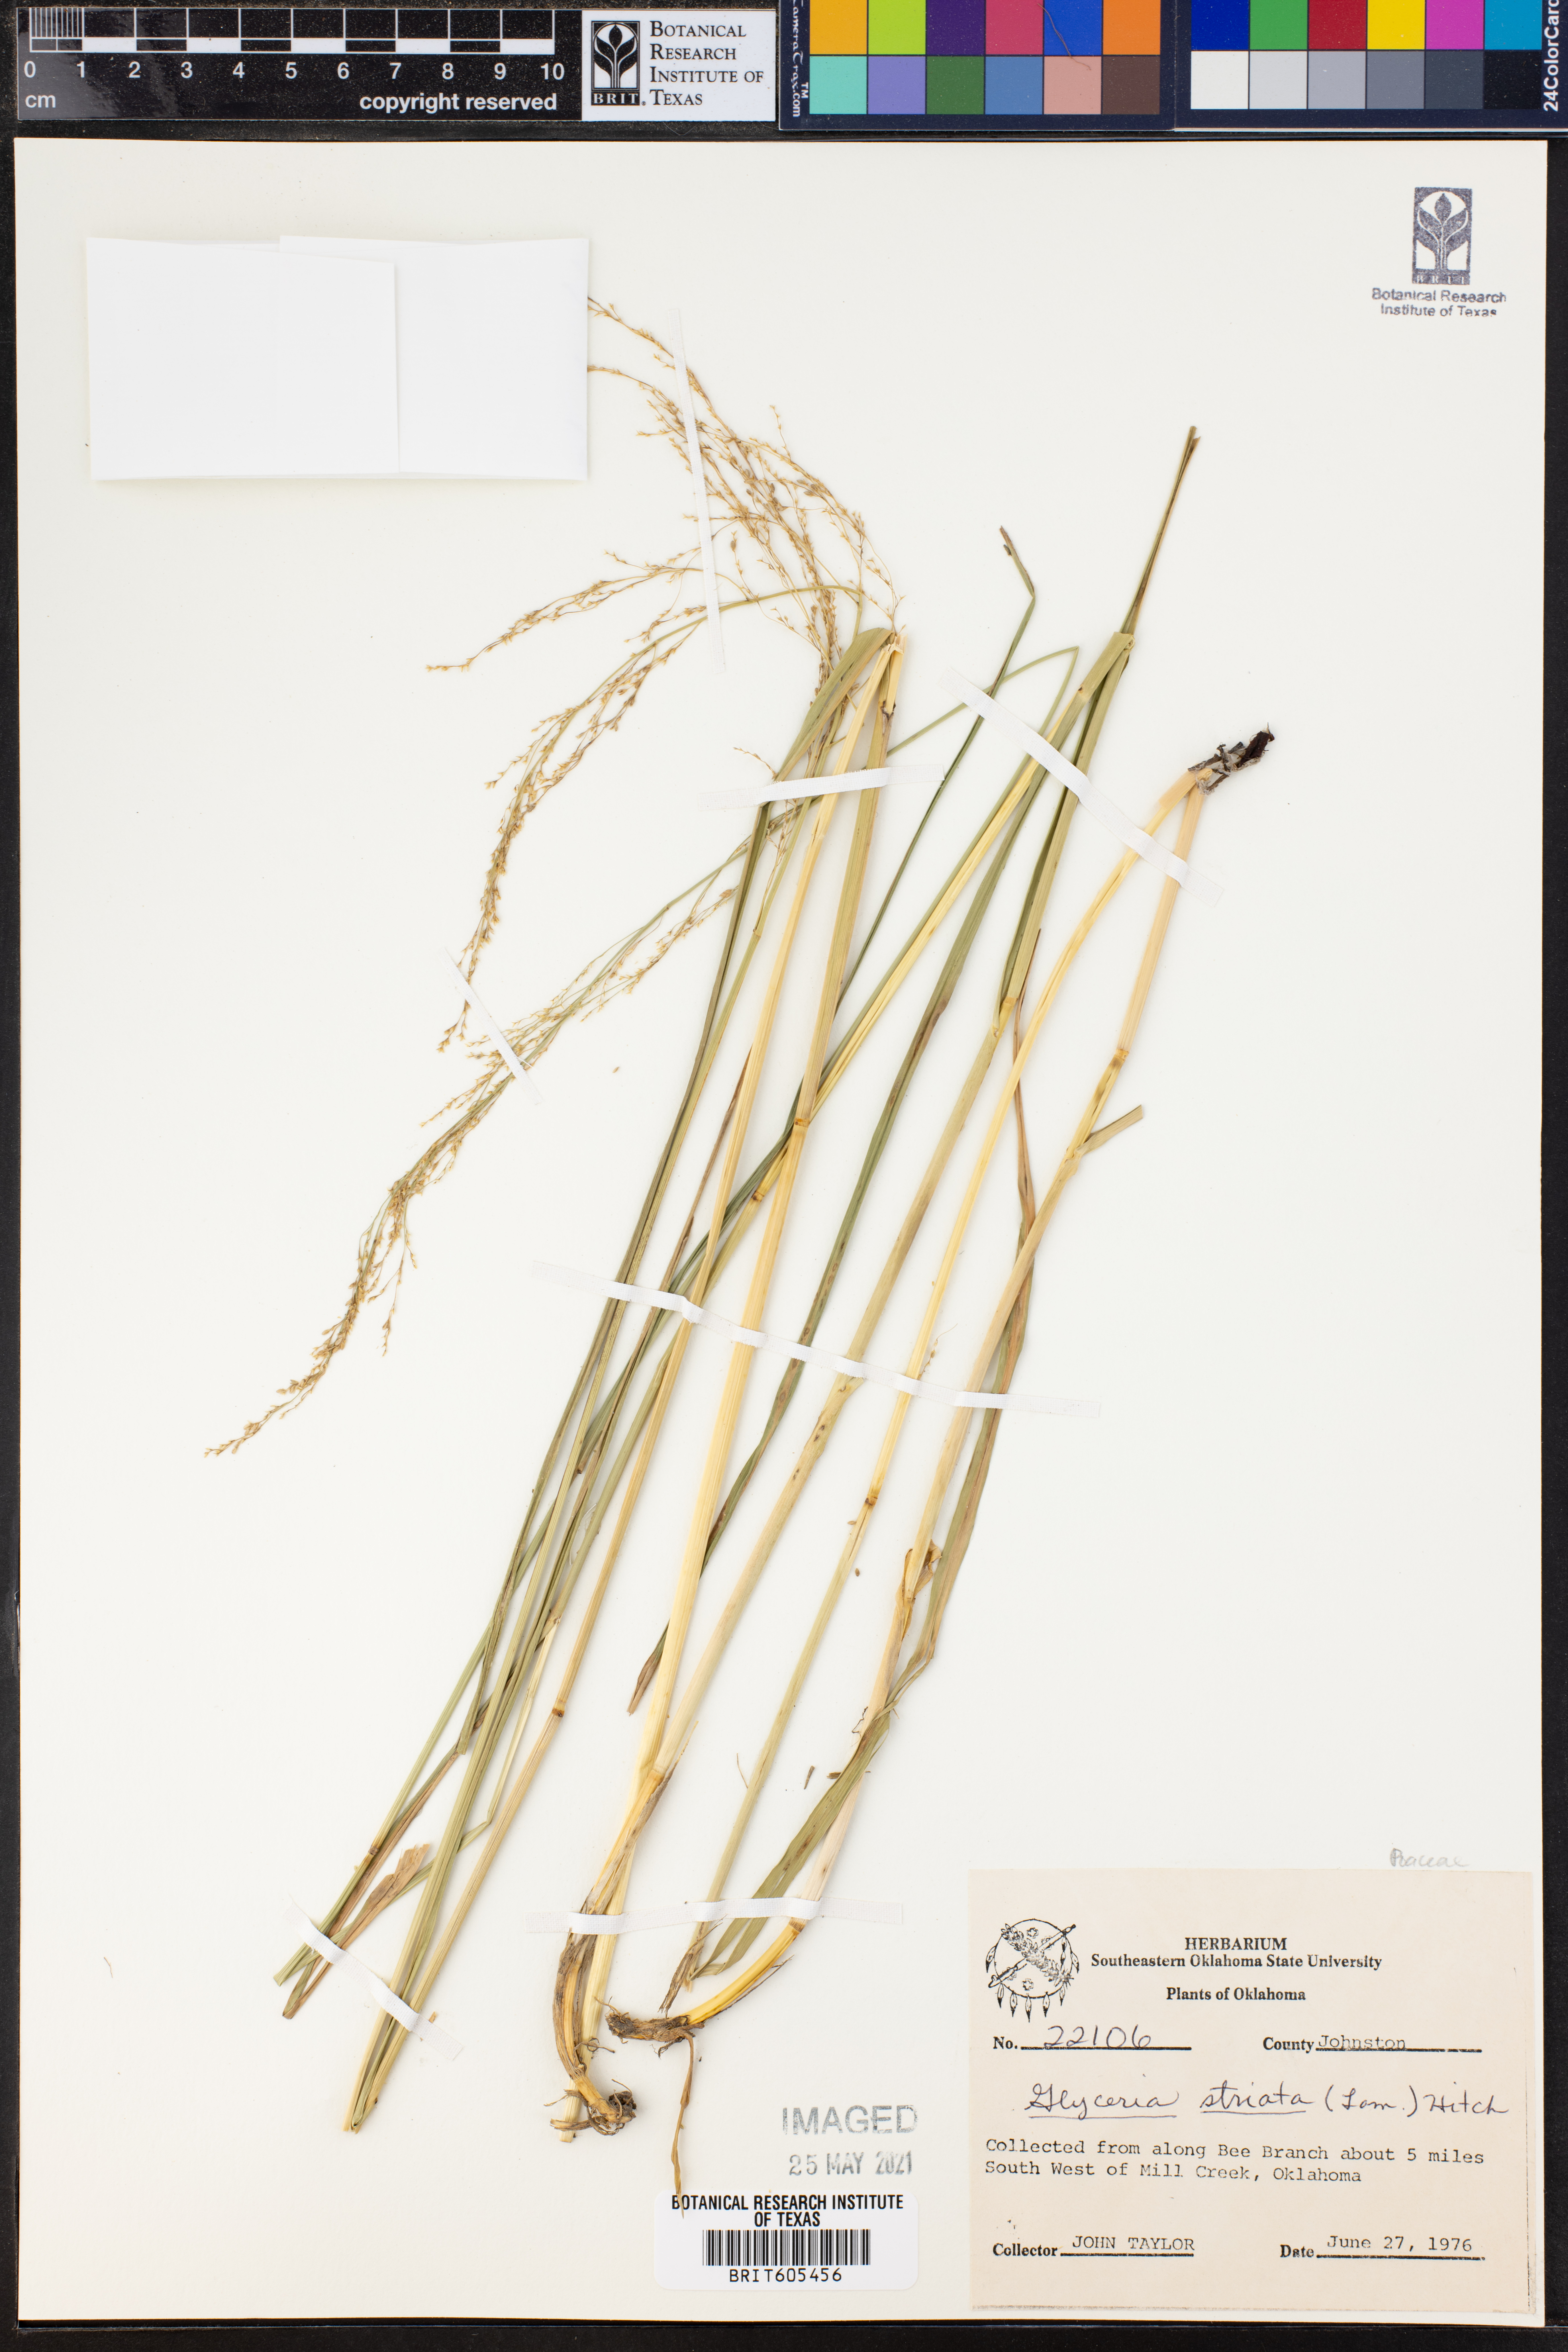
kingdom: Plantae
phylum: Tracheophyta
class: Liliopsida
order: Poales
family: Poaceae
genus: Glyceria
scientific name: Glyceria striata
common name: Fowl manna grass
